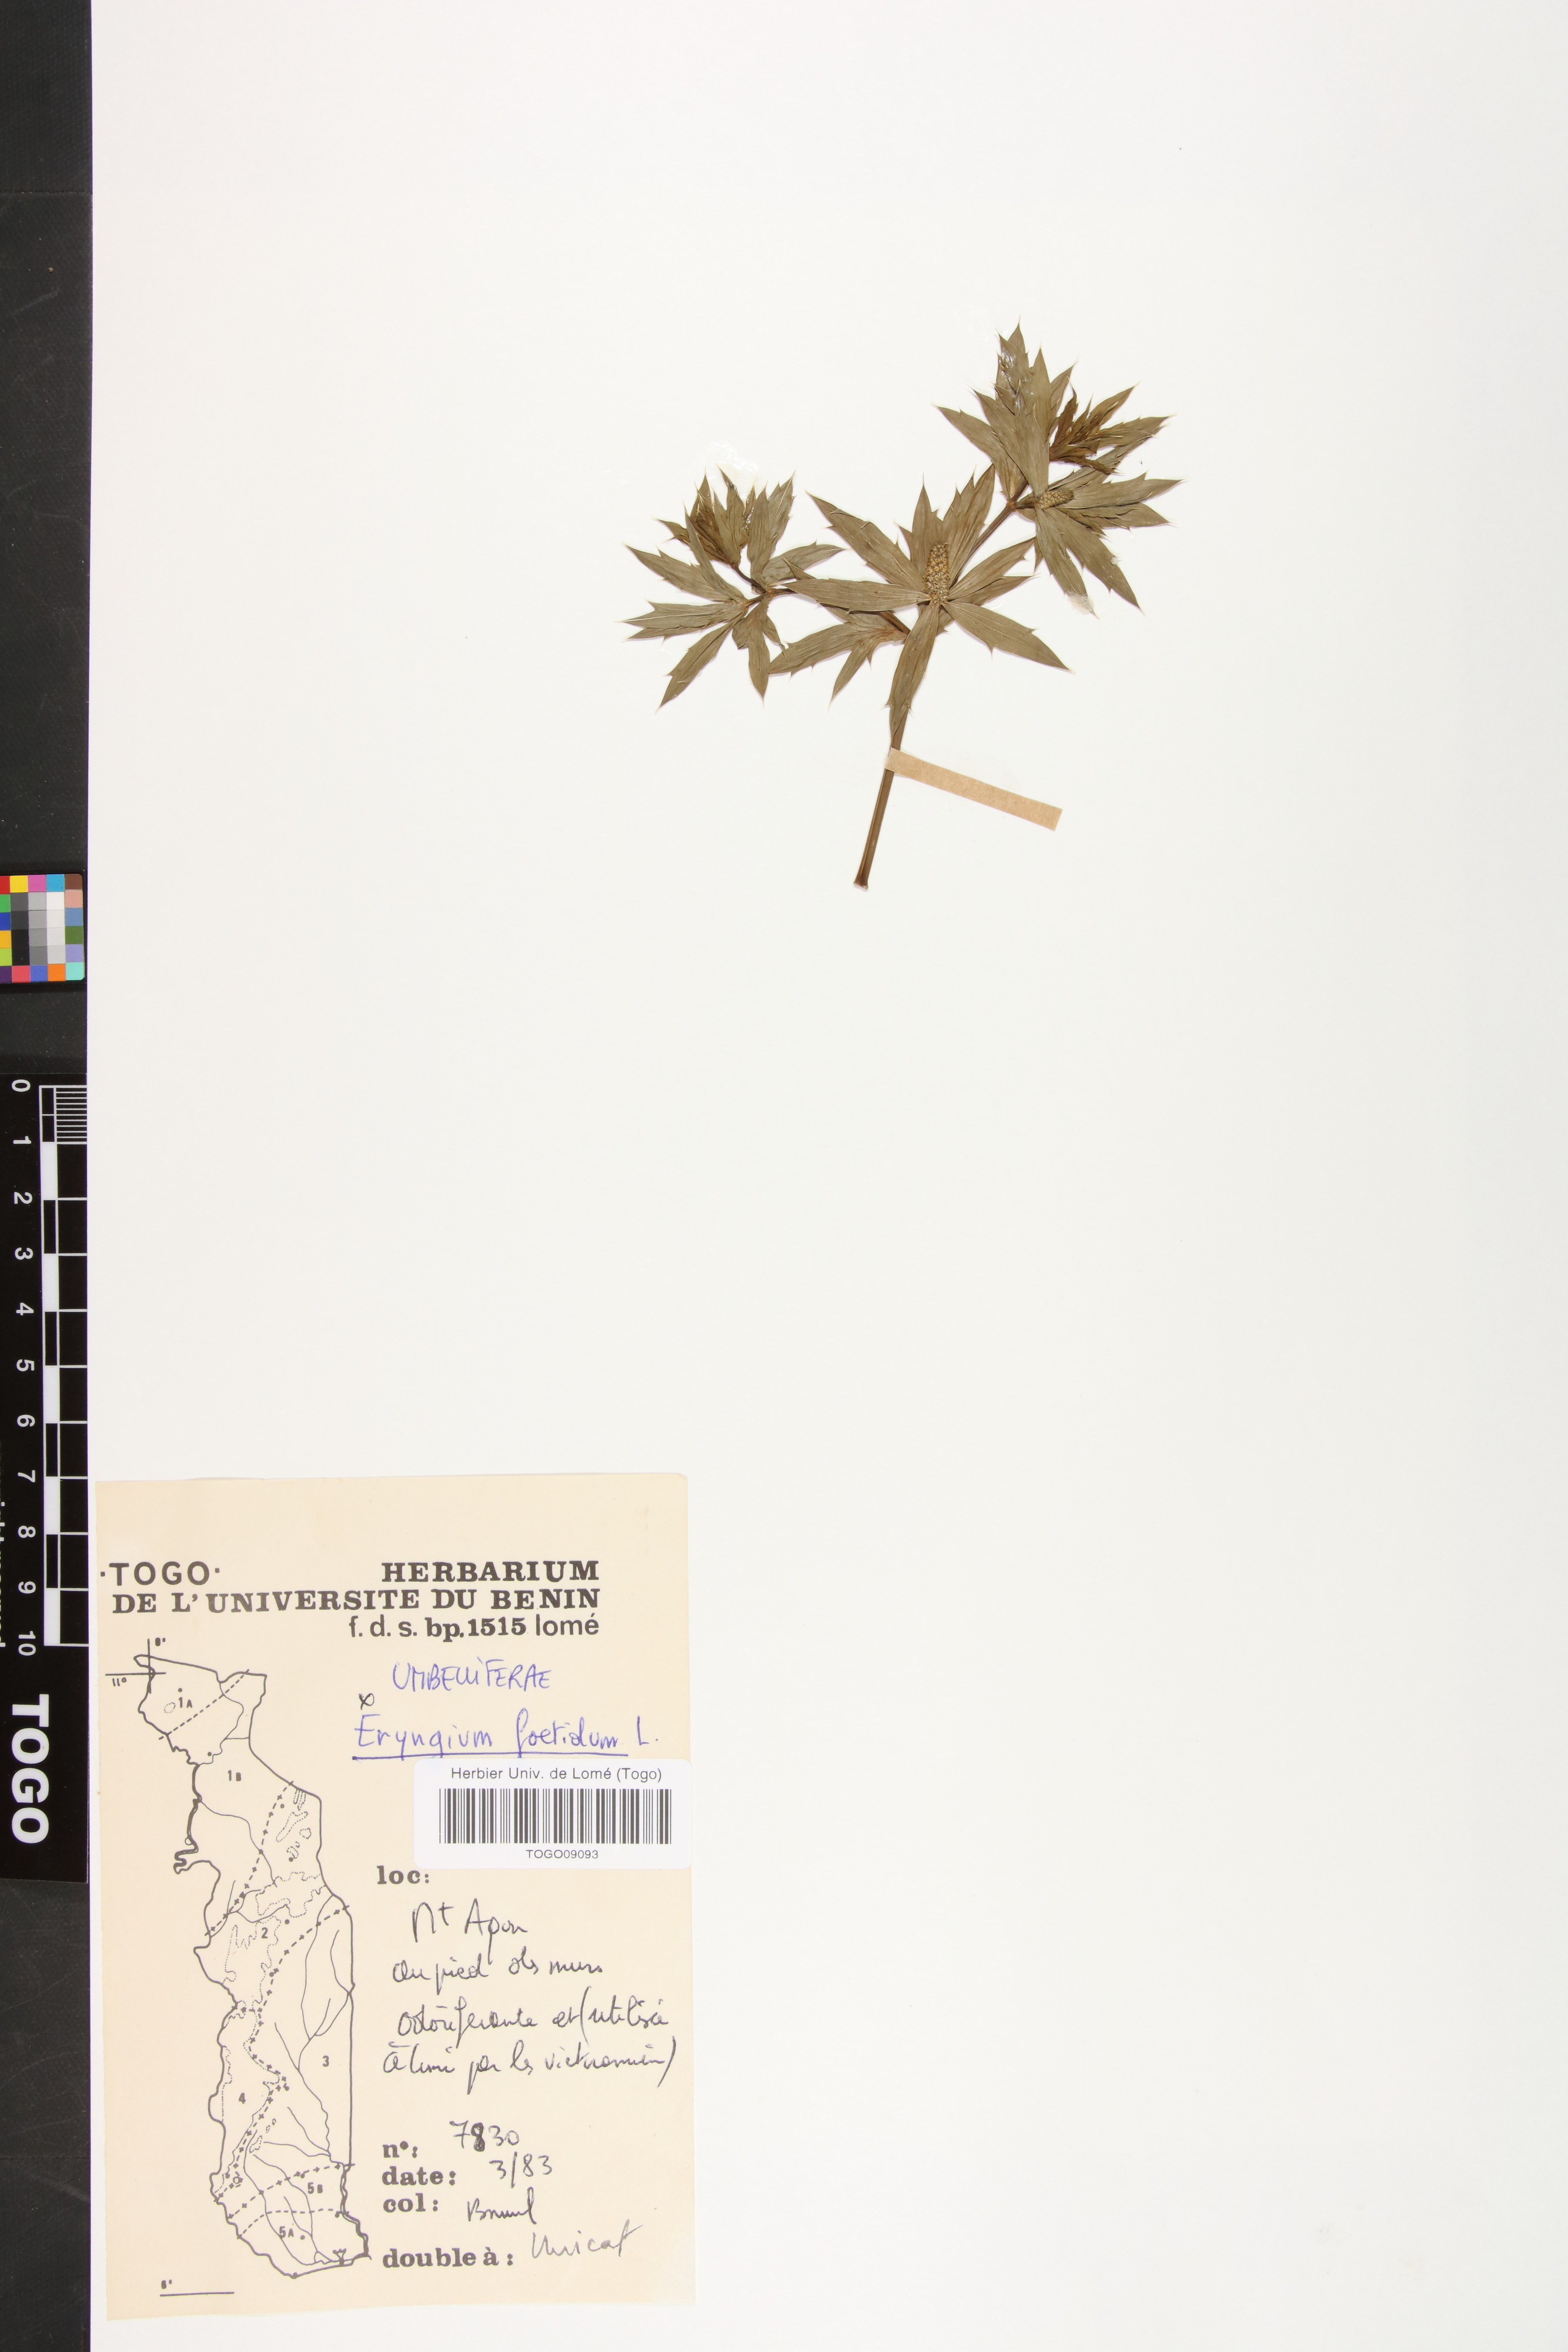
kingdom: Plantae
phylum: Tracheophyta
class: Magnoliopsida
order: Apiales
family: Apiaceae
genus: Eryngium
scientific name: Eryngium foetidum
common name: Fitweed
